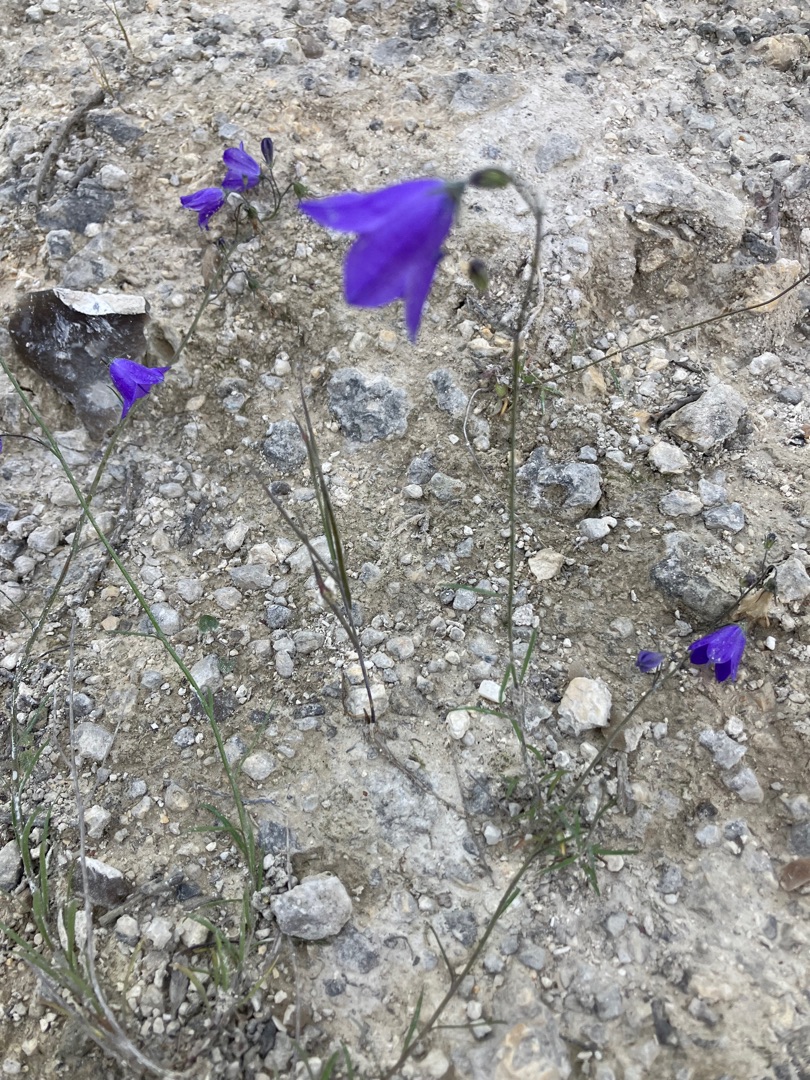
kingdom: Plantae
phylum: Tracheophyta
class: Magnoliopsida
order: Asterales
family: Campanulaceae
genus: Campanula
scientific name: Campanula rotundifolia
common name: Liden klokke
